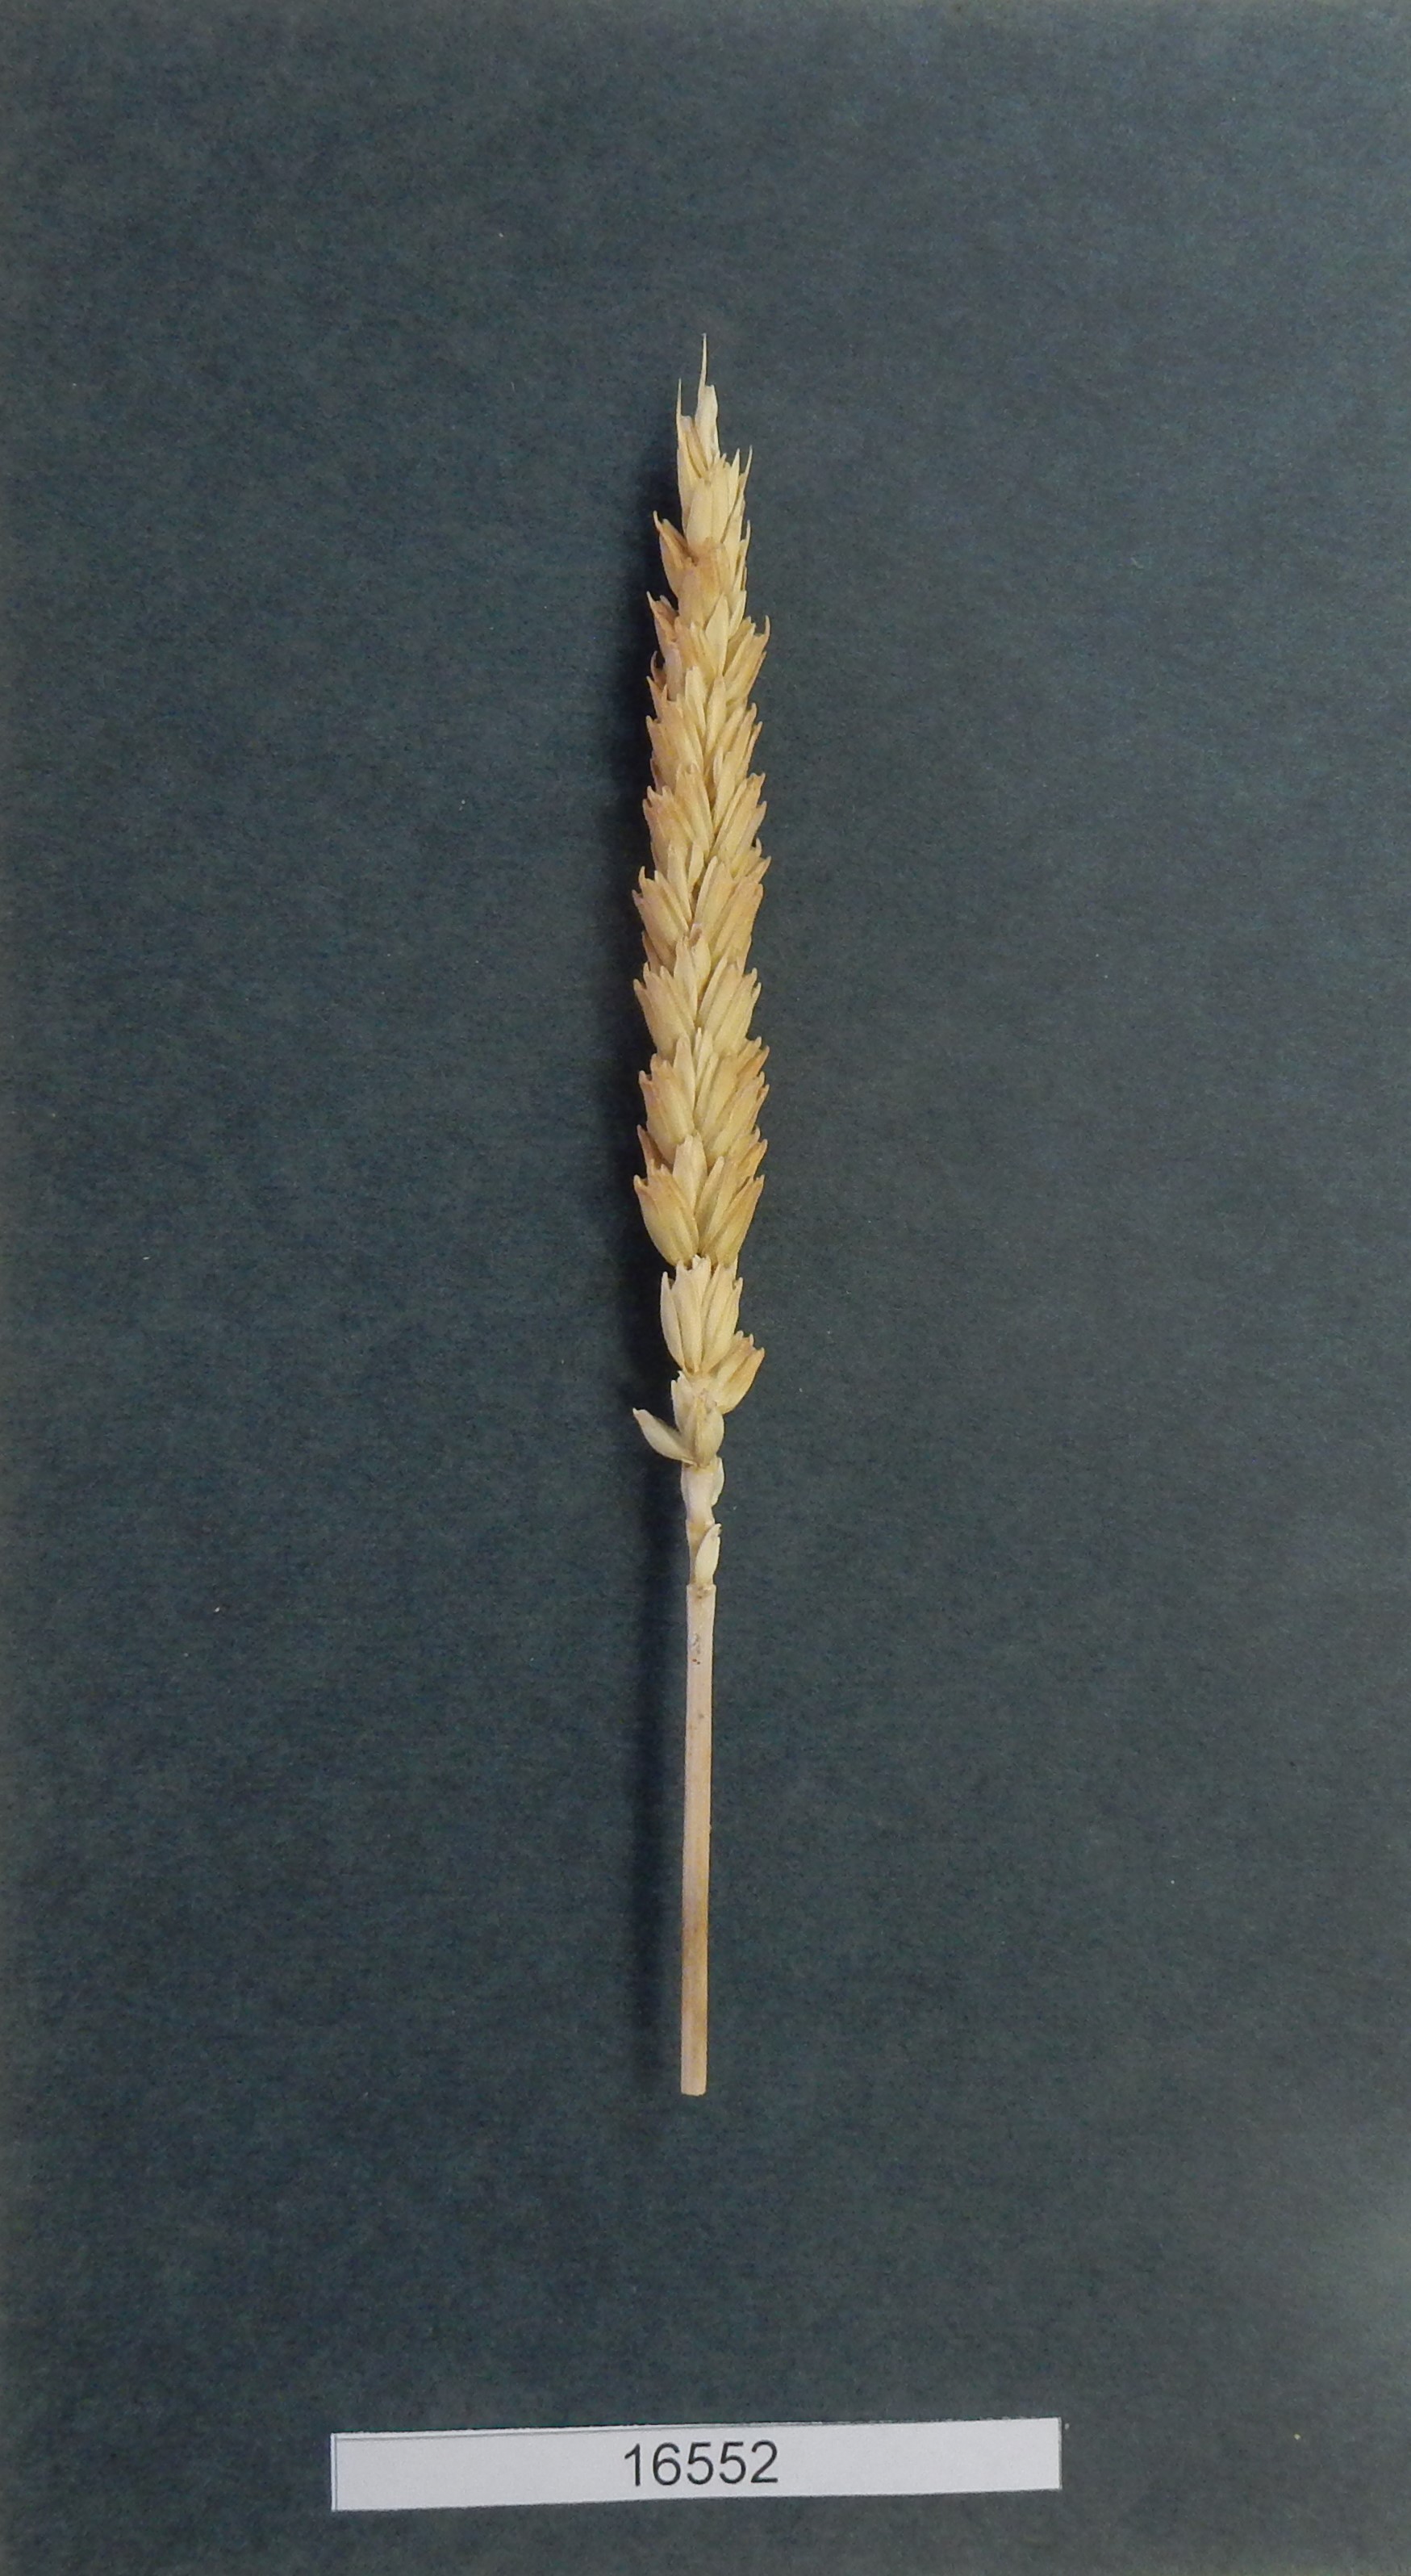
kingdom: Plantae
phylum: Tracheophyta
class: Liliopsida
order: Poales
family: Poaceae
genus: Triticum
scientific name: Triticum
